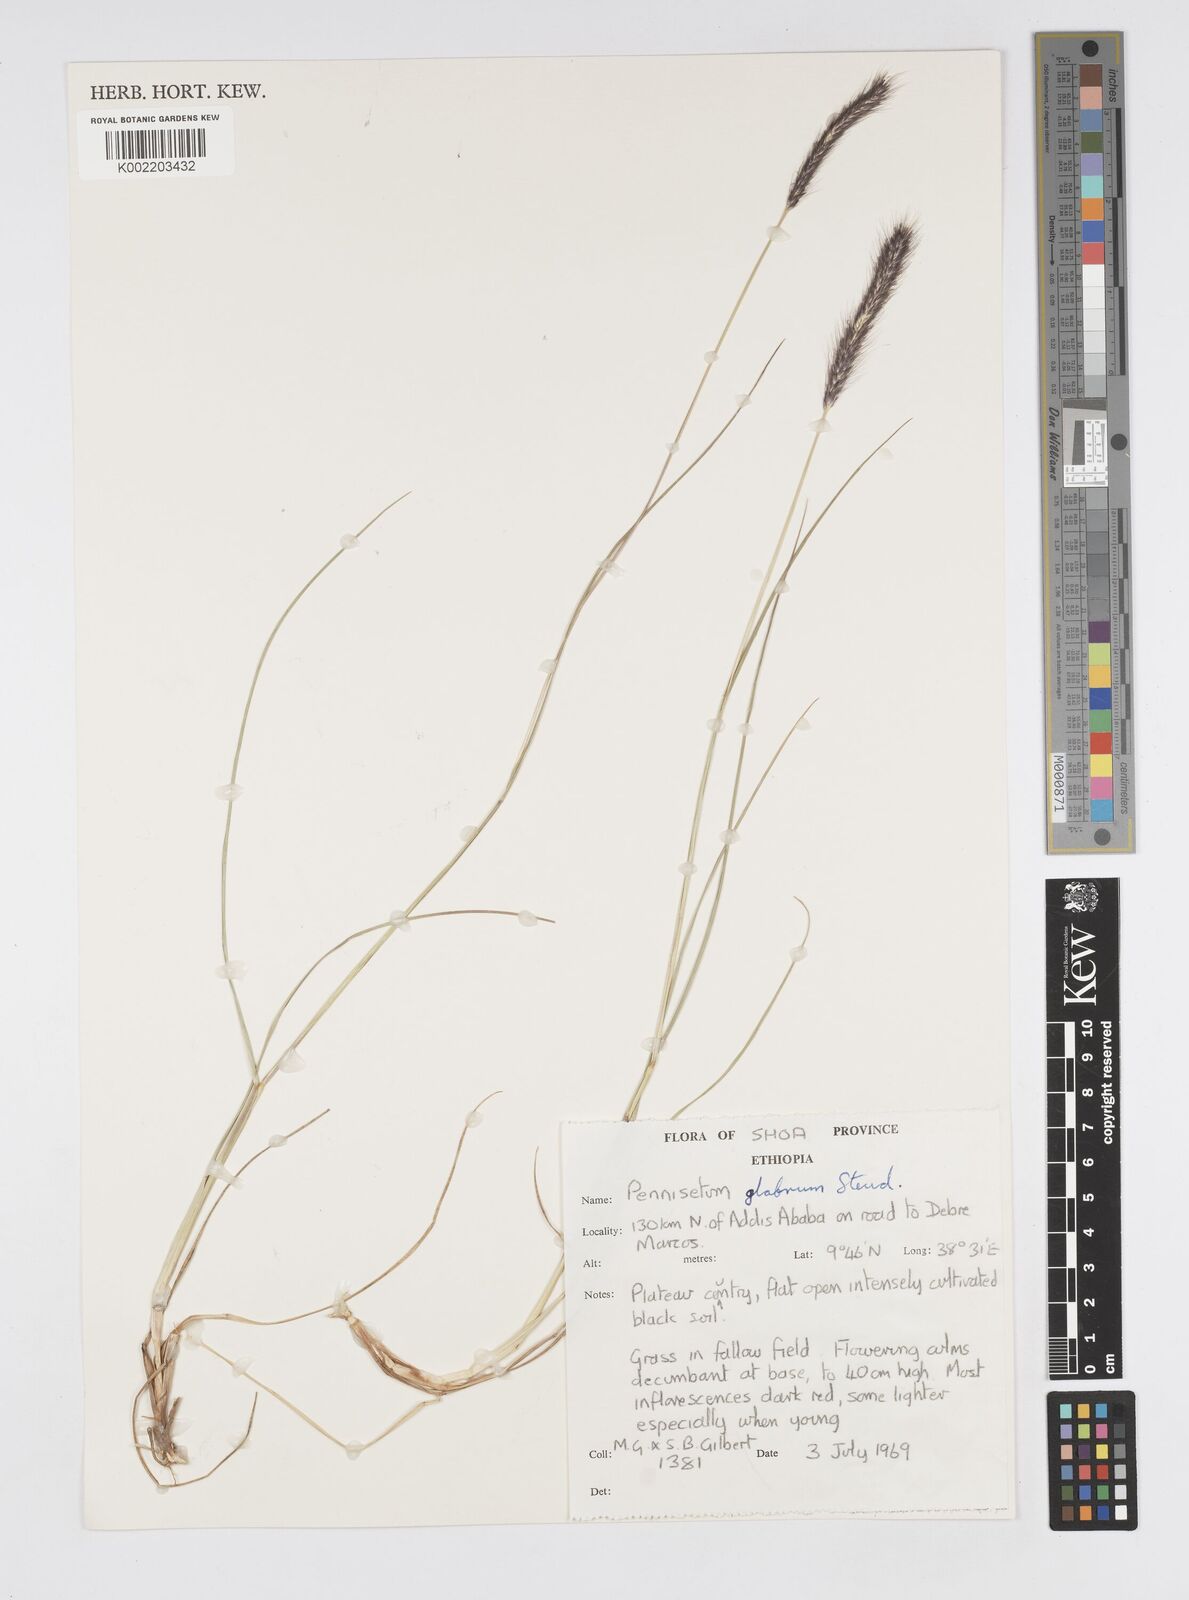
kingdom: Plantae
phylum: Tracheophyta
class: Liliopsida
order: Poales
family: Poaceae
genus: Cenchrus
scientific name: Cenchrus geniculatus
